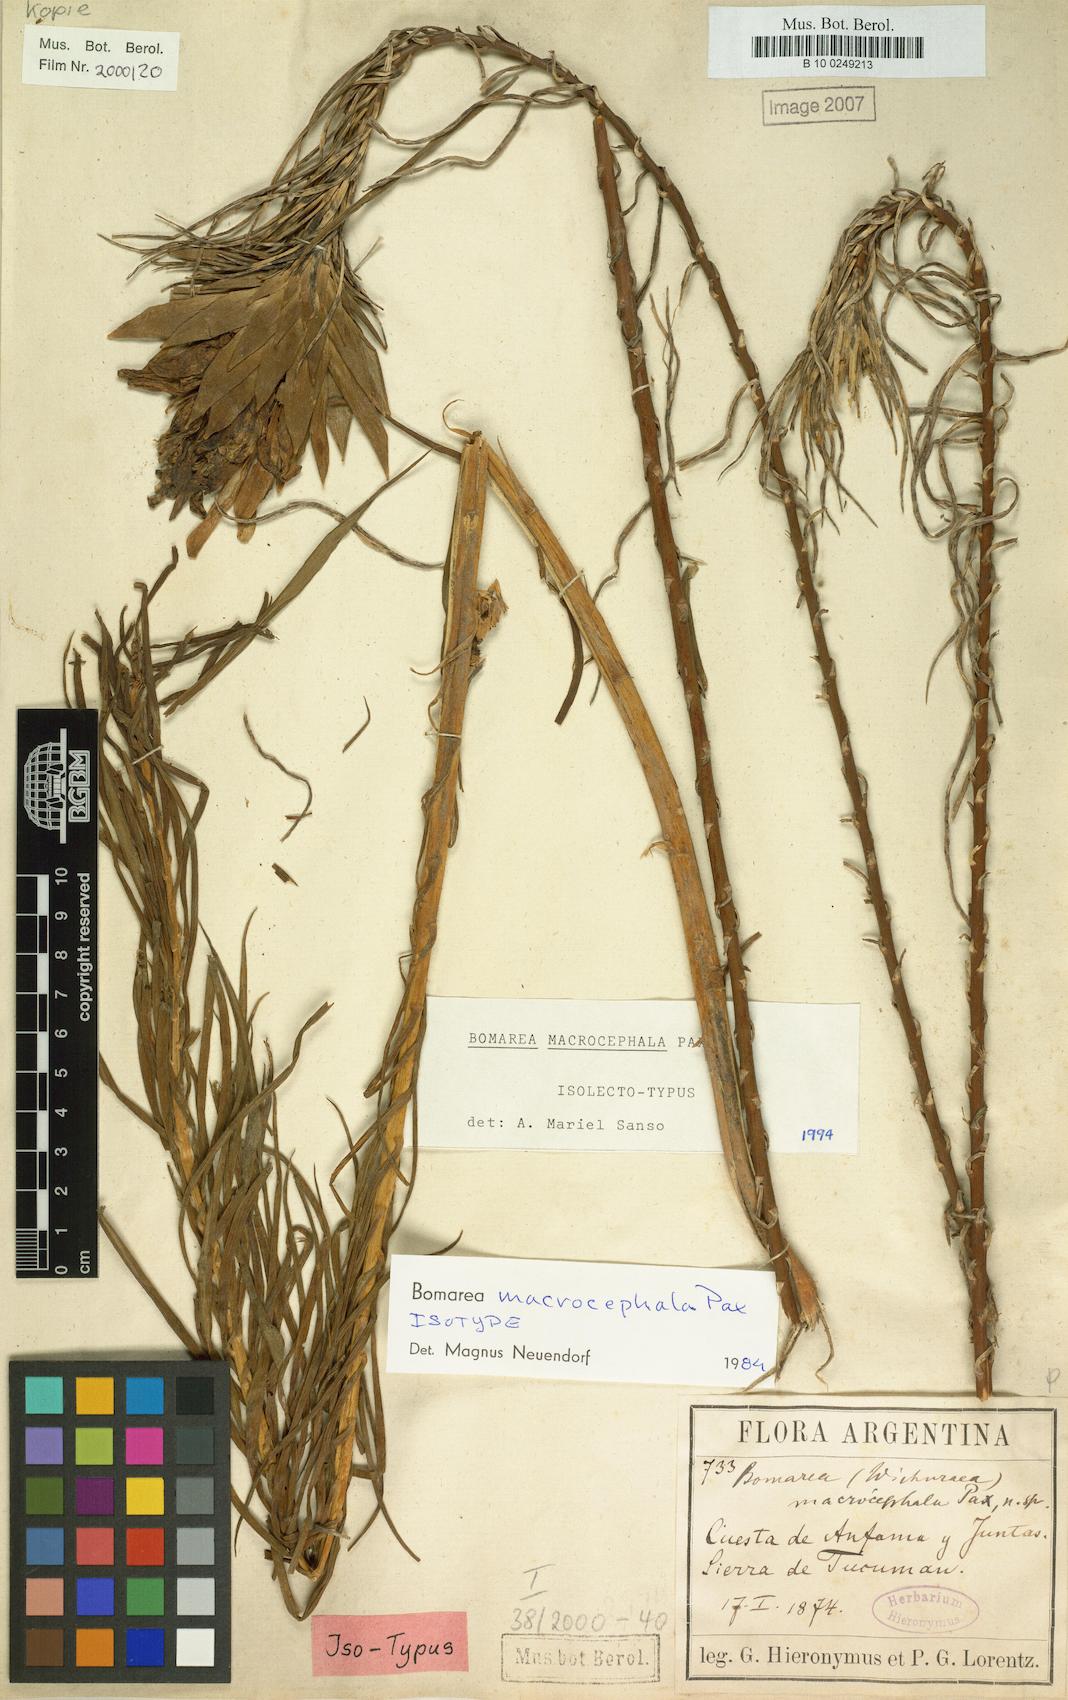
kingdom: Plantae
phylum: Tracheophyta
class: Liliopsida
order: Liliales
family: Alstroemeriaceae
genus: Bomarea
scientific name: Bomarea macrocephala
